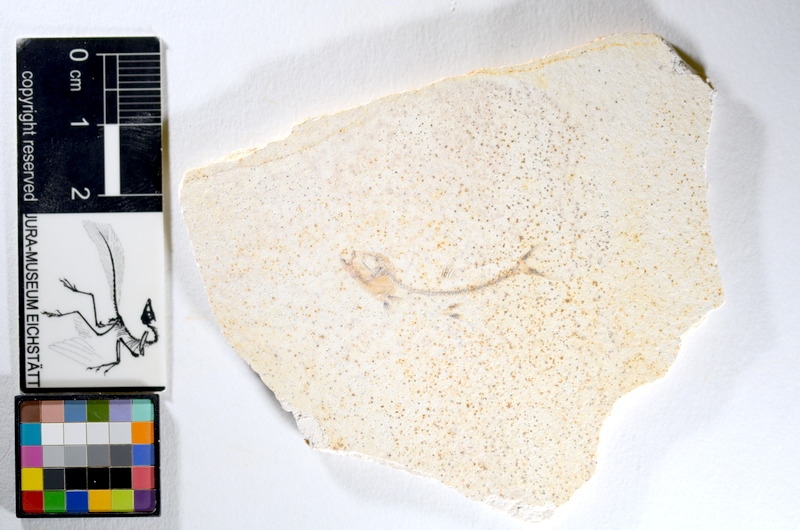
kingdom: Animalia
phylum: Chordata
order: Salmoniformes
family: Orthogonikleithridae
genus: Orthogonikleithrus
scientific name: Orthogonikleithrus hoelli
